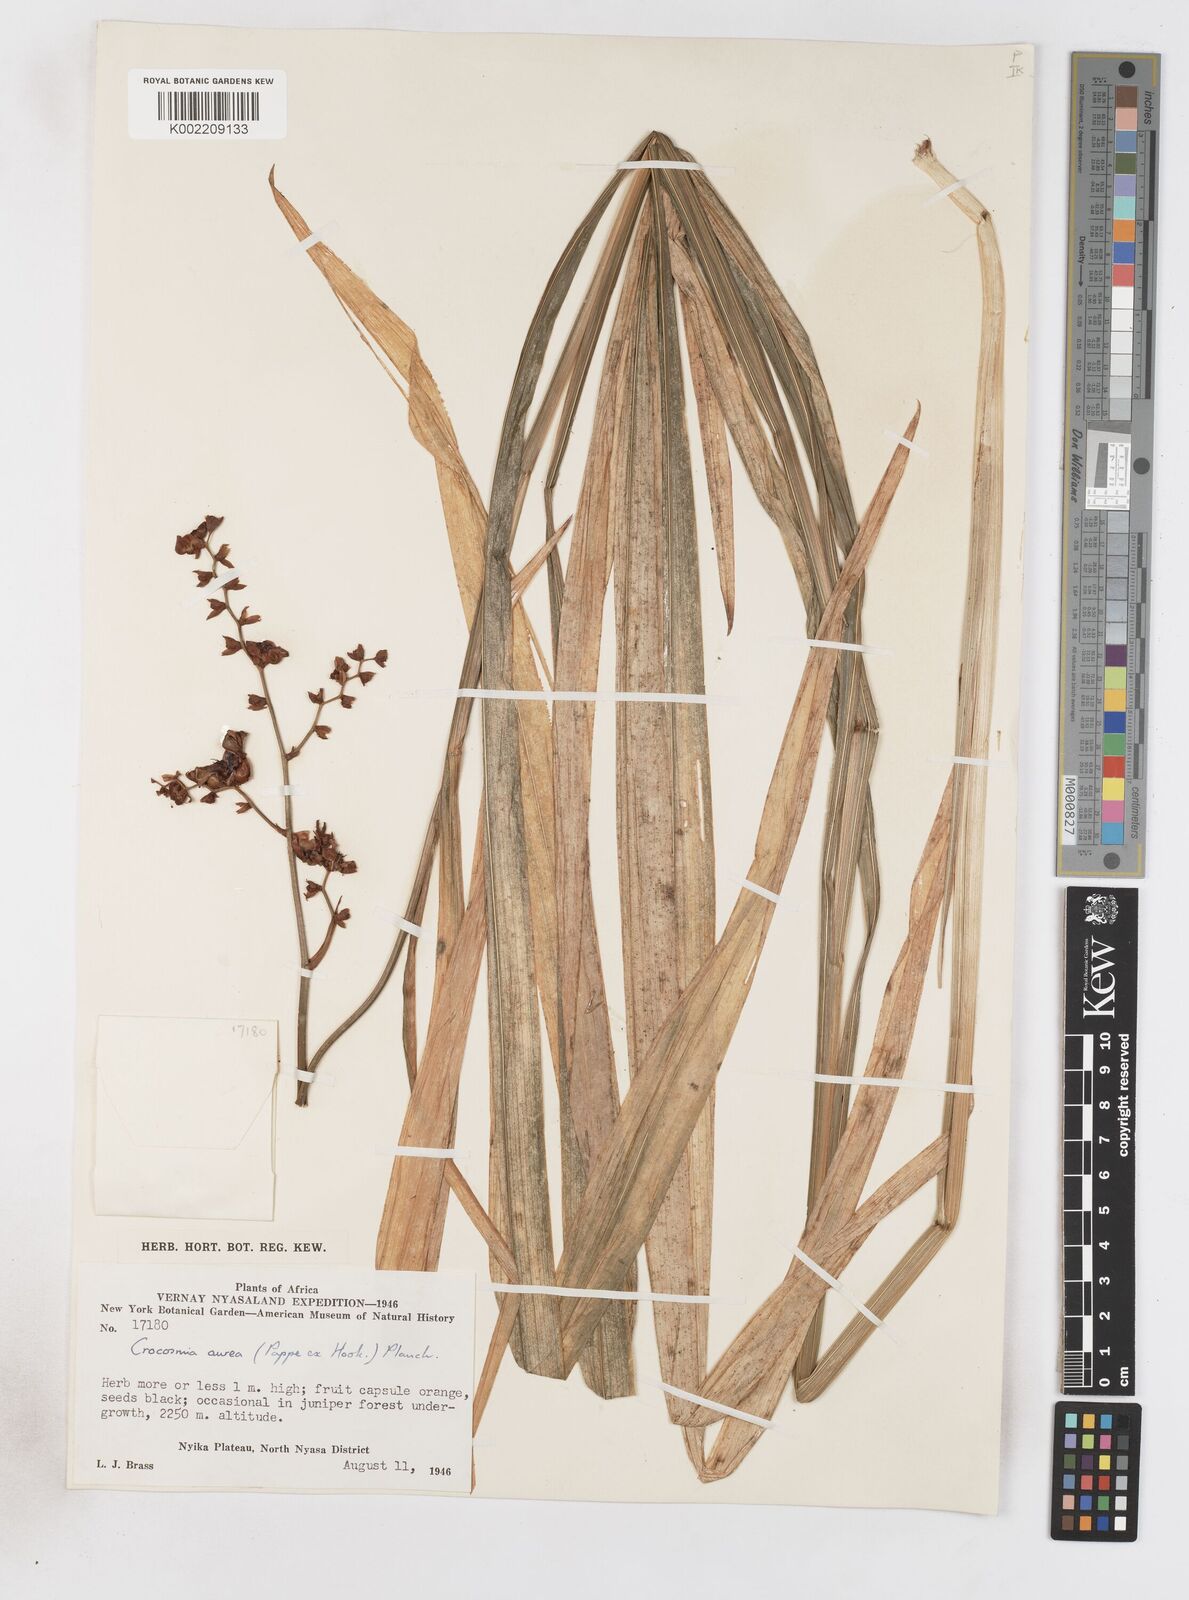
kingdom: Plantae
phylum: Tracheophyta
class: Liliopsida
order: Asparagales
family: Iridaceae
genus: Crocosmia
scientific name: Crocosmia aurea
